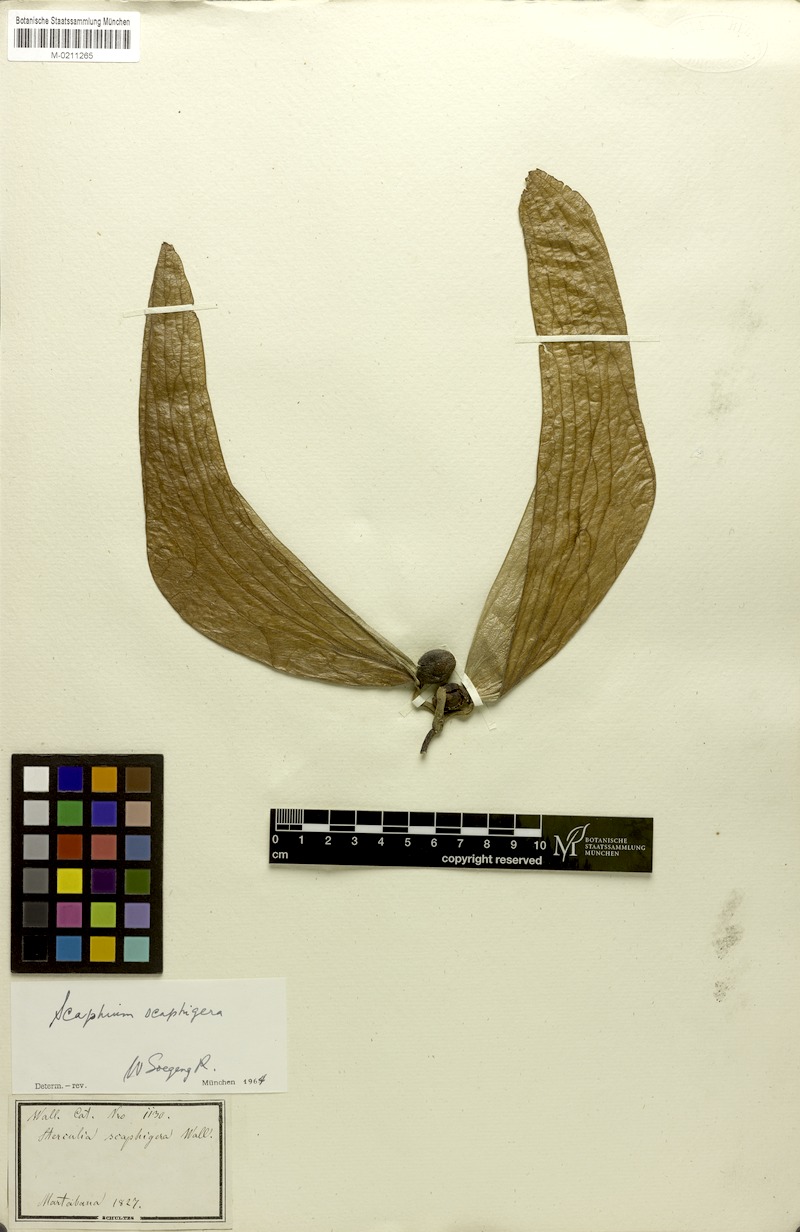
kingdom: Plantae
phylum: Tracheophyta
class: Magnoliopsida
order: Malvales
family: Malvaceae
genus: Scaphium
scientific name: Scaphium scaphigerum
